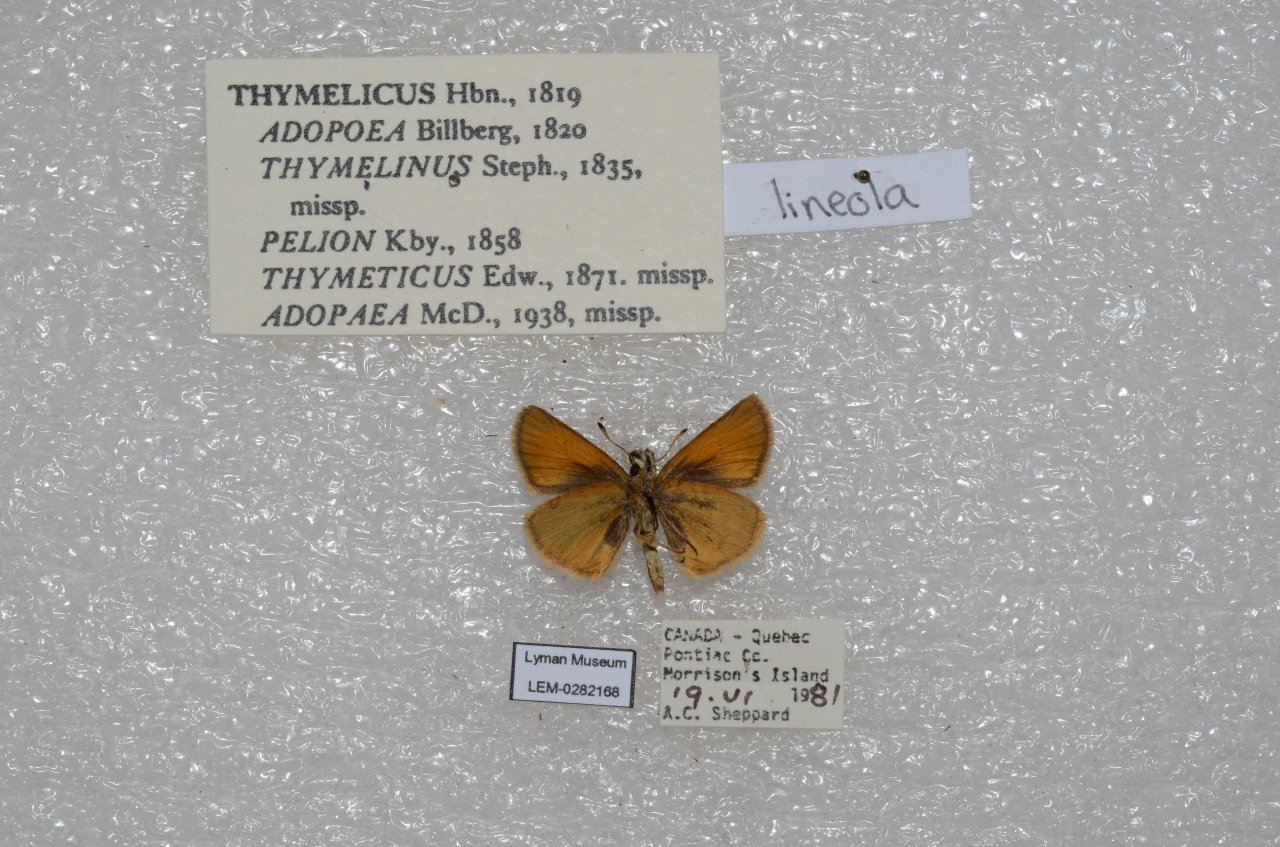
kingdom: Animalia
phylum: Arthropoda
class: Insecta
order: Lepidoptera
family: Hesperiidae
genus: Thymelicus
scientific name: Thymelicus lineola
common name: European Skipper
